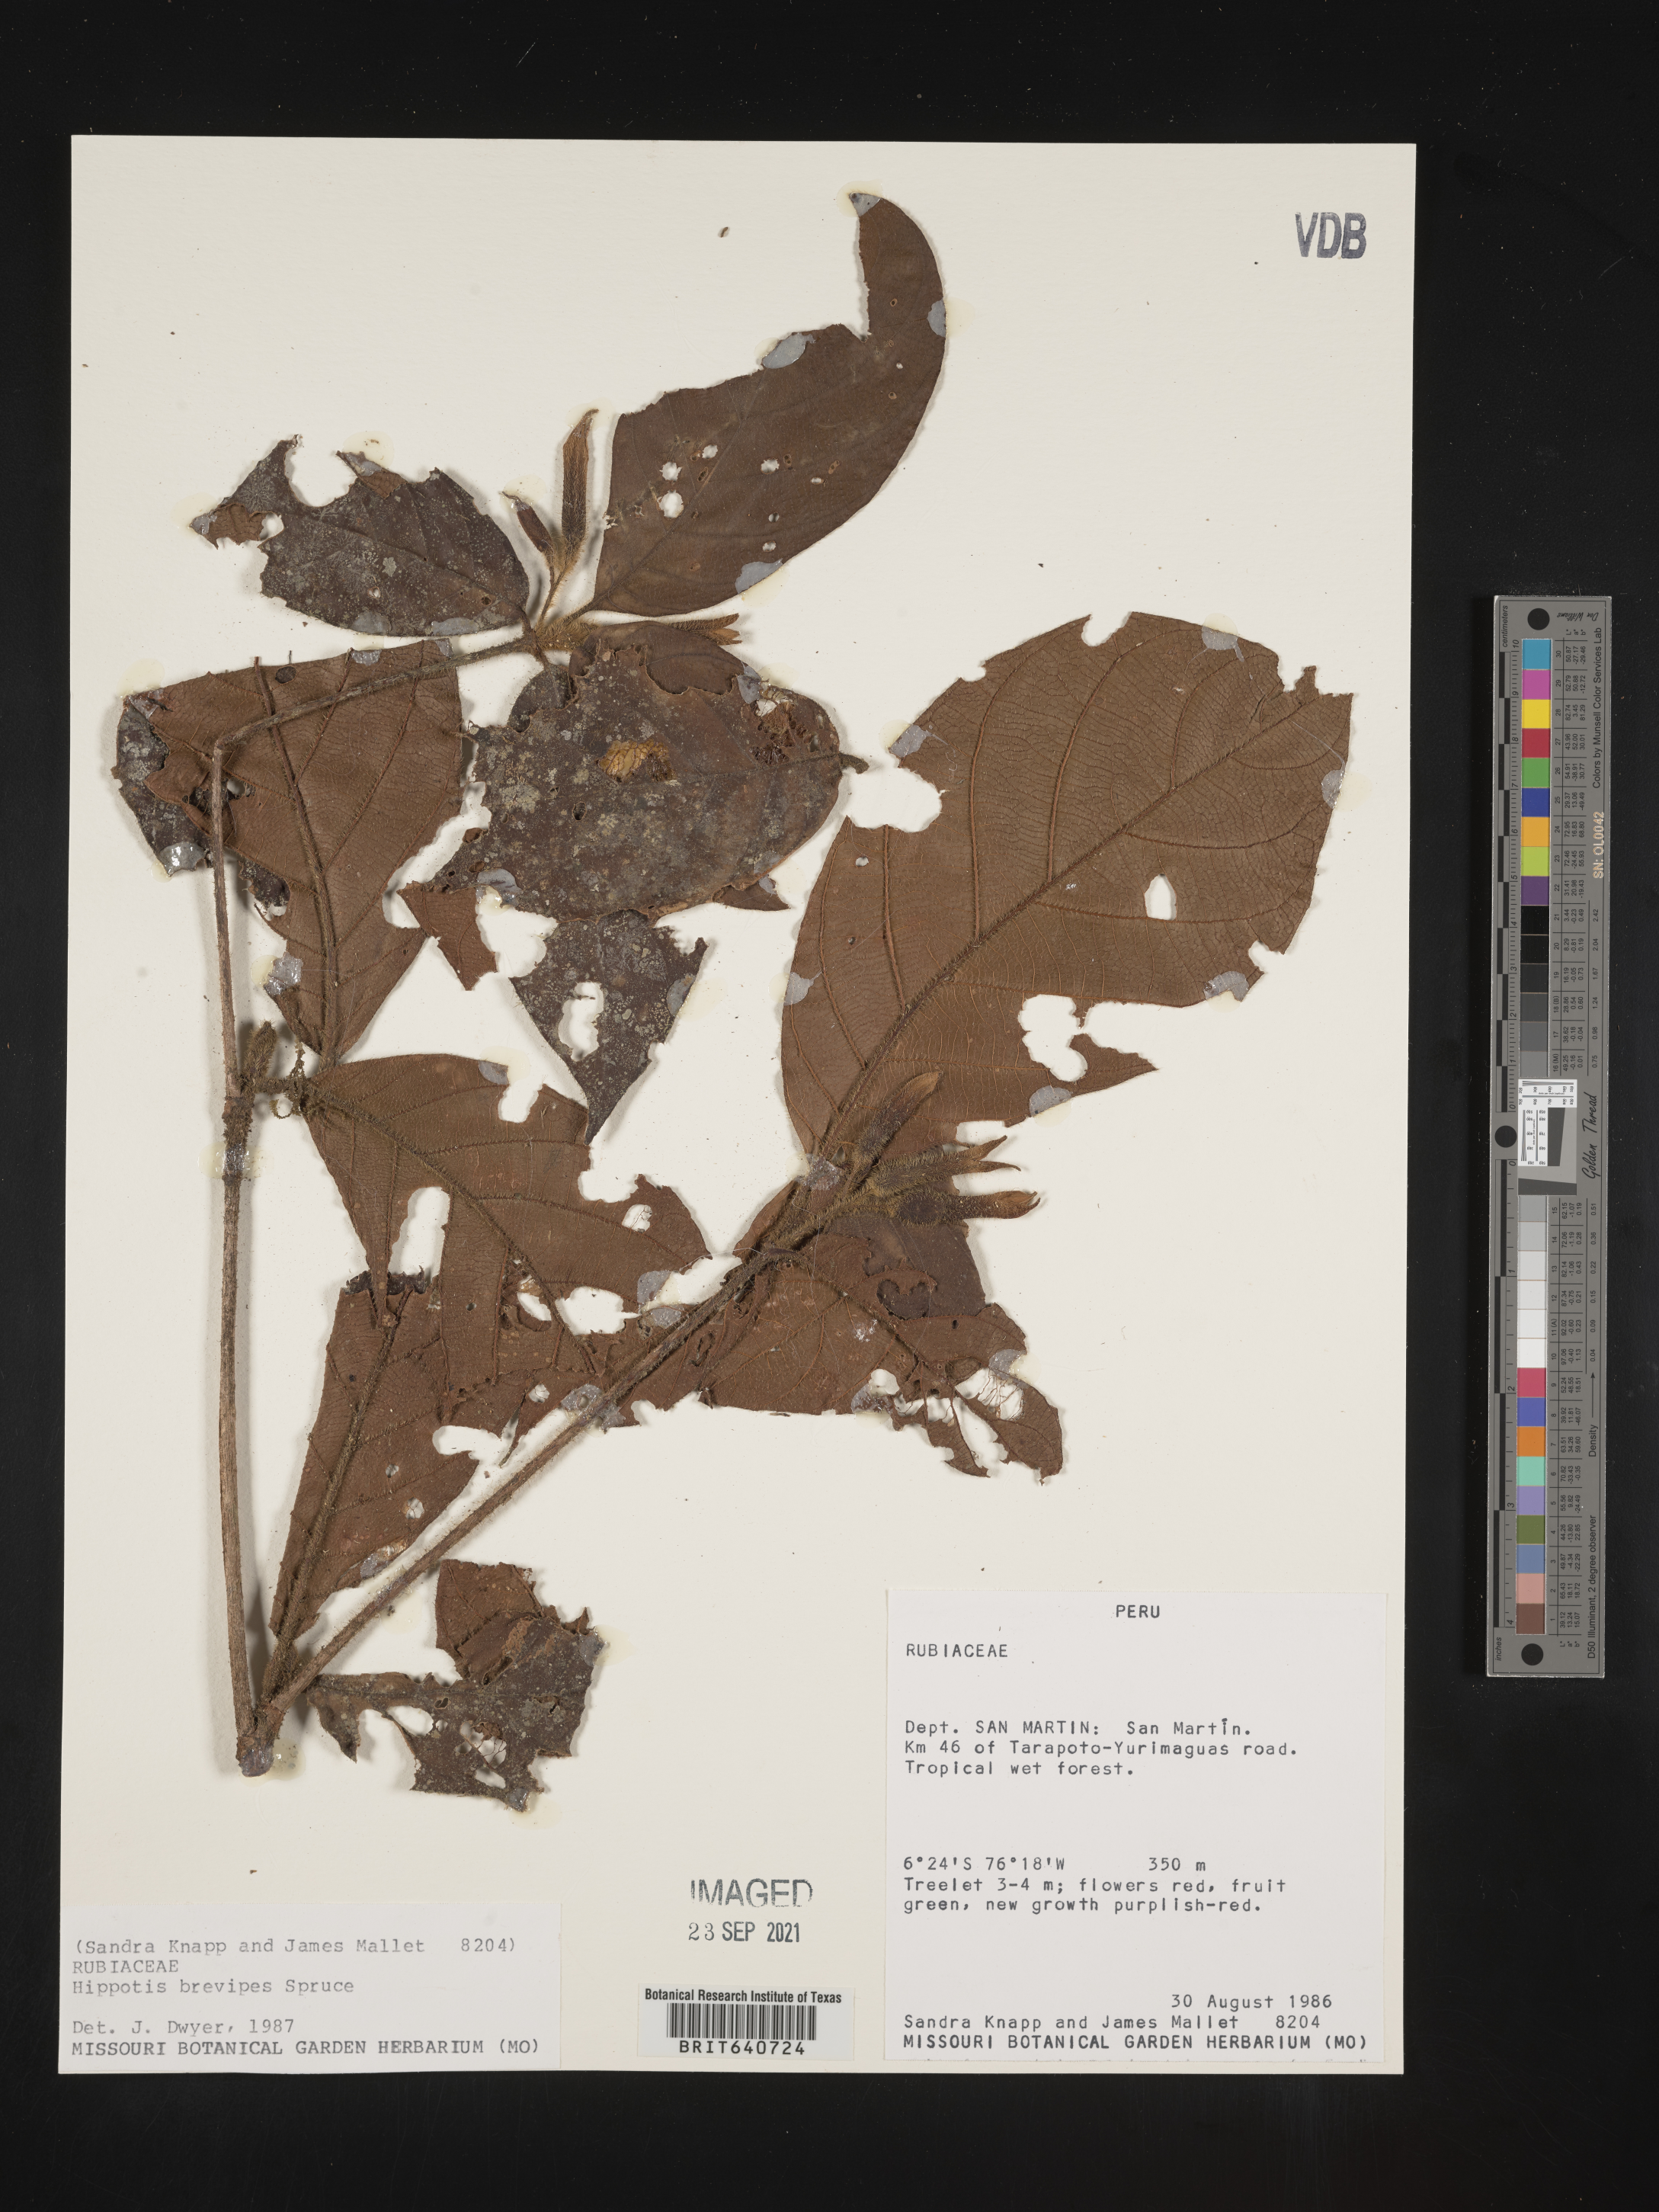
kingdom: Plantae
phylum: Tracheophyta
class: Magnoliopsida
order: Gentianales
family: Rubiaceae
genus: Hippotis
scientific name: Hippotis
